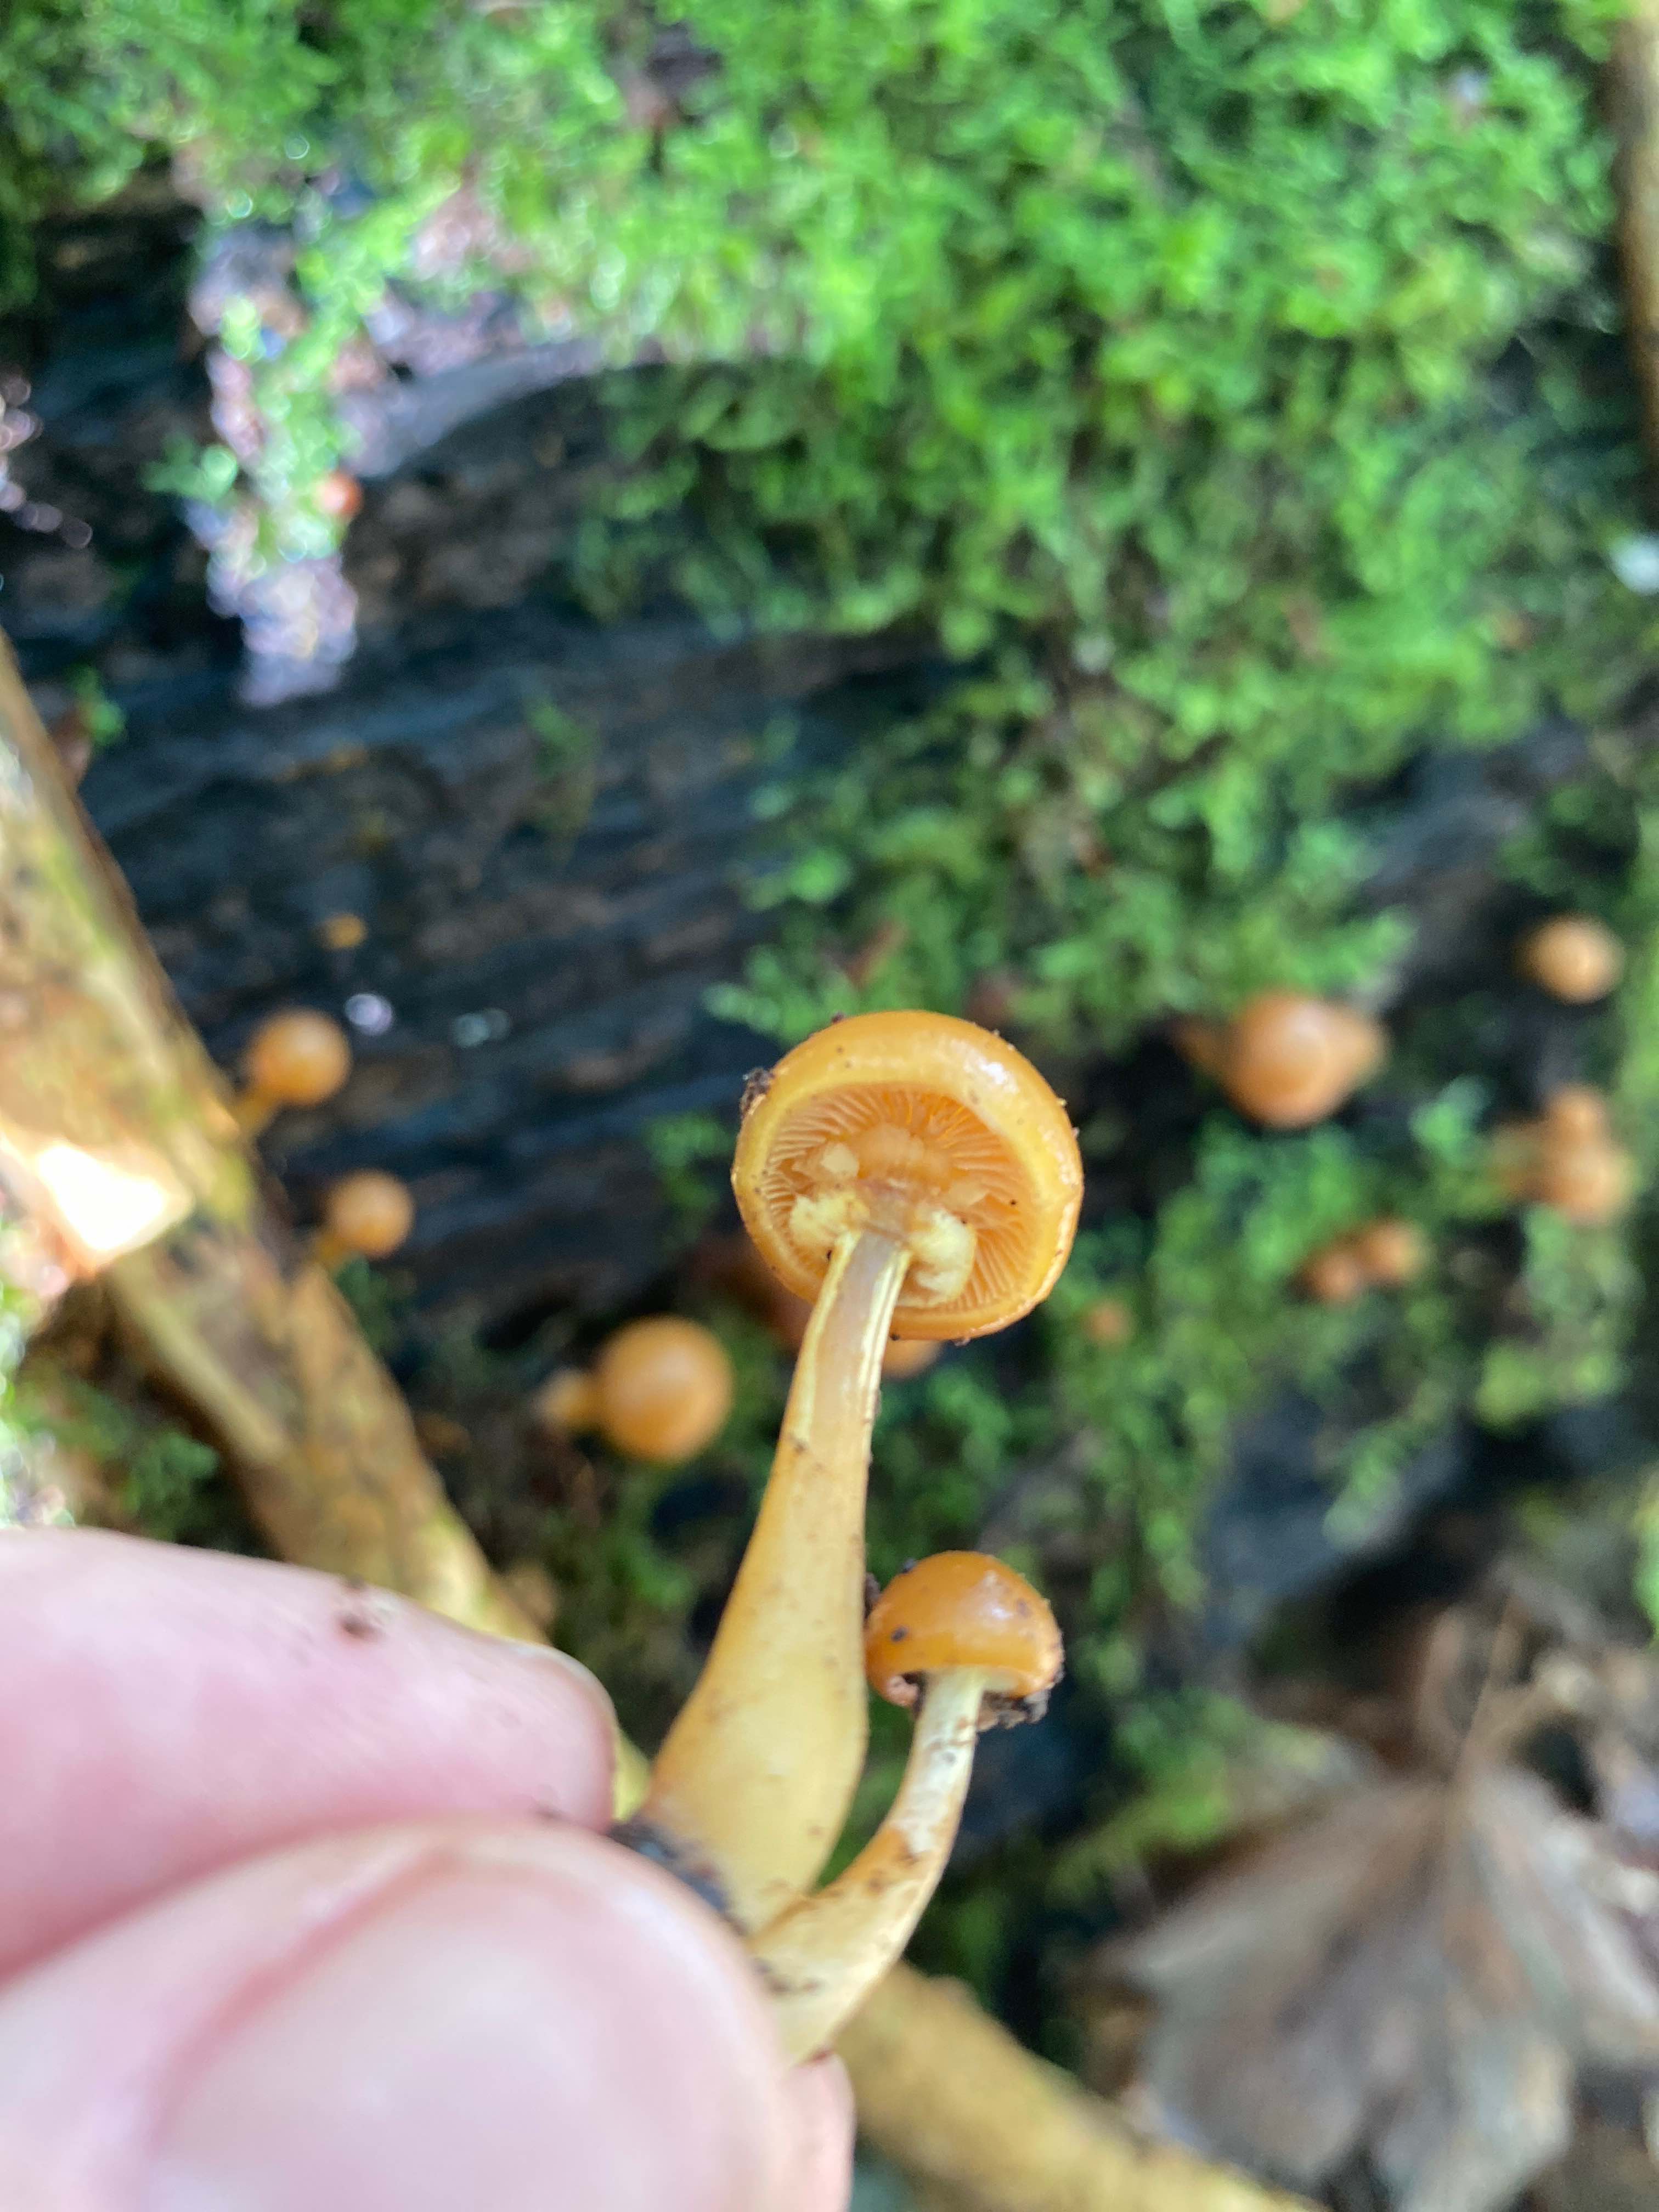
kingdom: Fungi
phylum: Basidiomycota
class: Agaricomycetes
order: Agaricales
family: Hymenogastraceae
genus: Galerina
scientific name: Galerina marginata
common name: randbæltet hjelmhat
